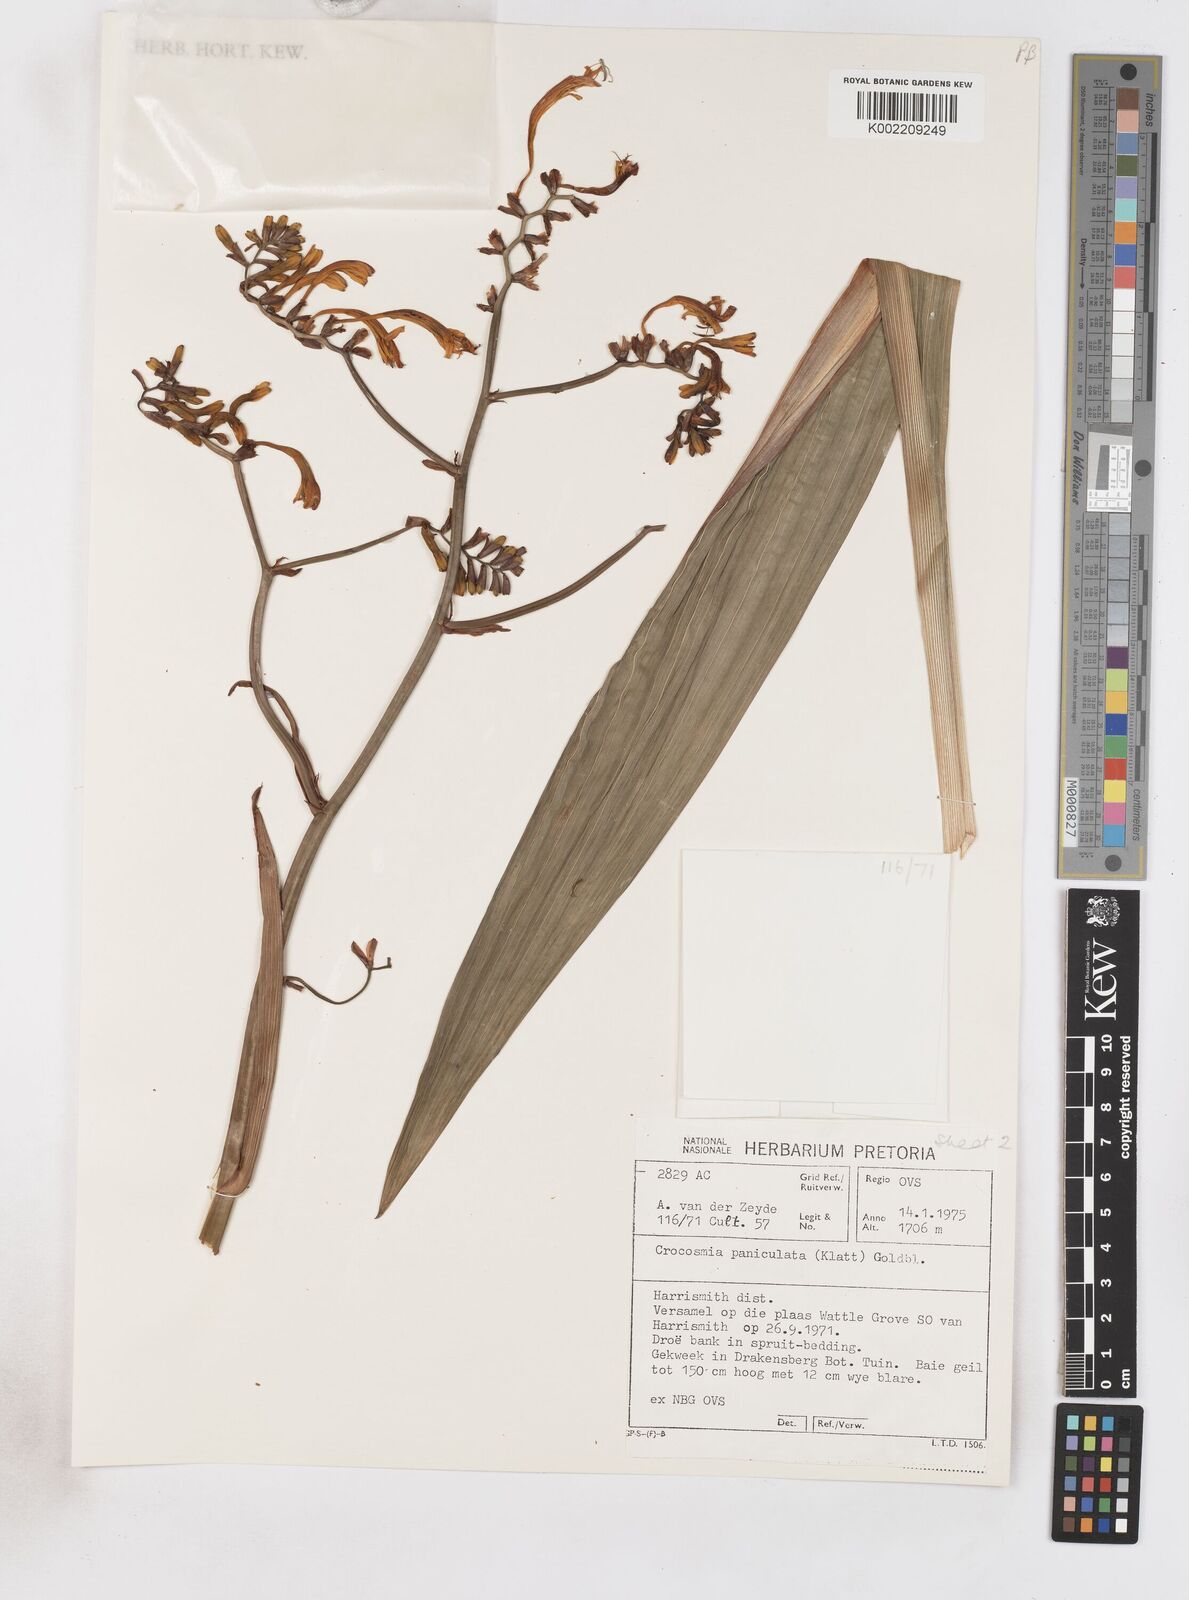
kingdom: Plantae
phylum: Tracheophyta
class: Liliopsida
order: Asparagales
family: Iridaceae
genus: Crocosmia
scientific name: Crocosmia paniculata
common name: Aunt eliza
